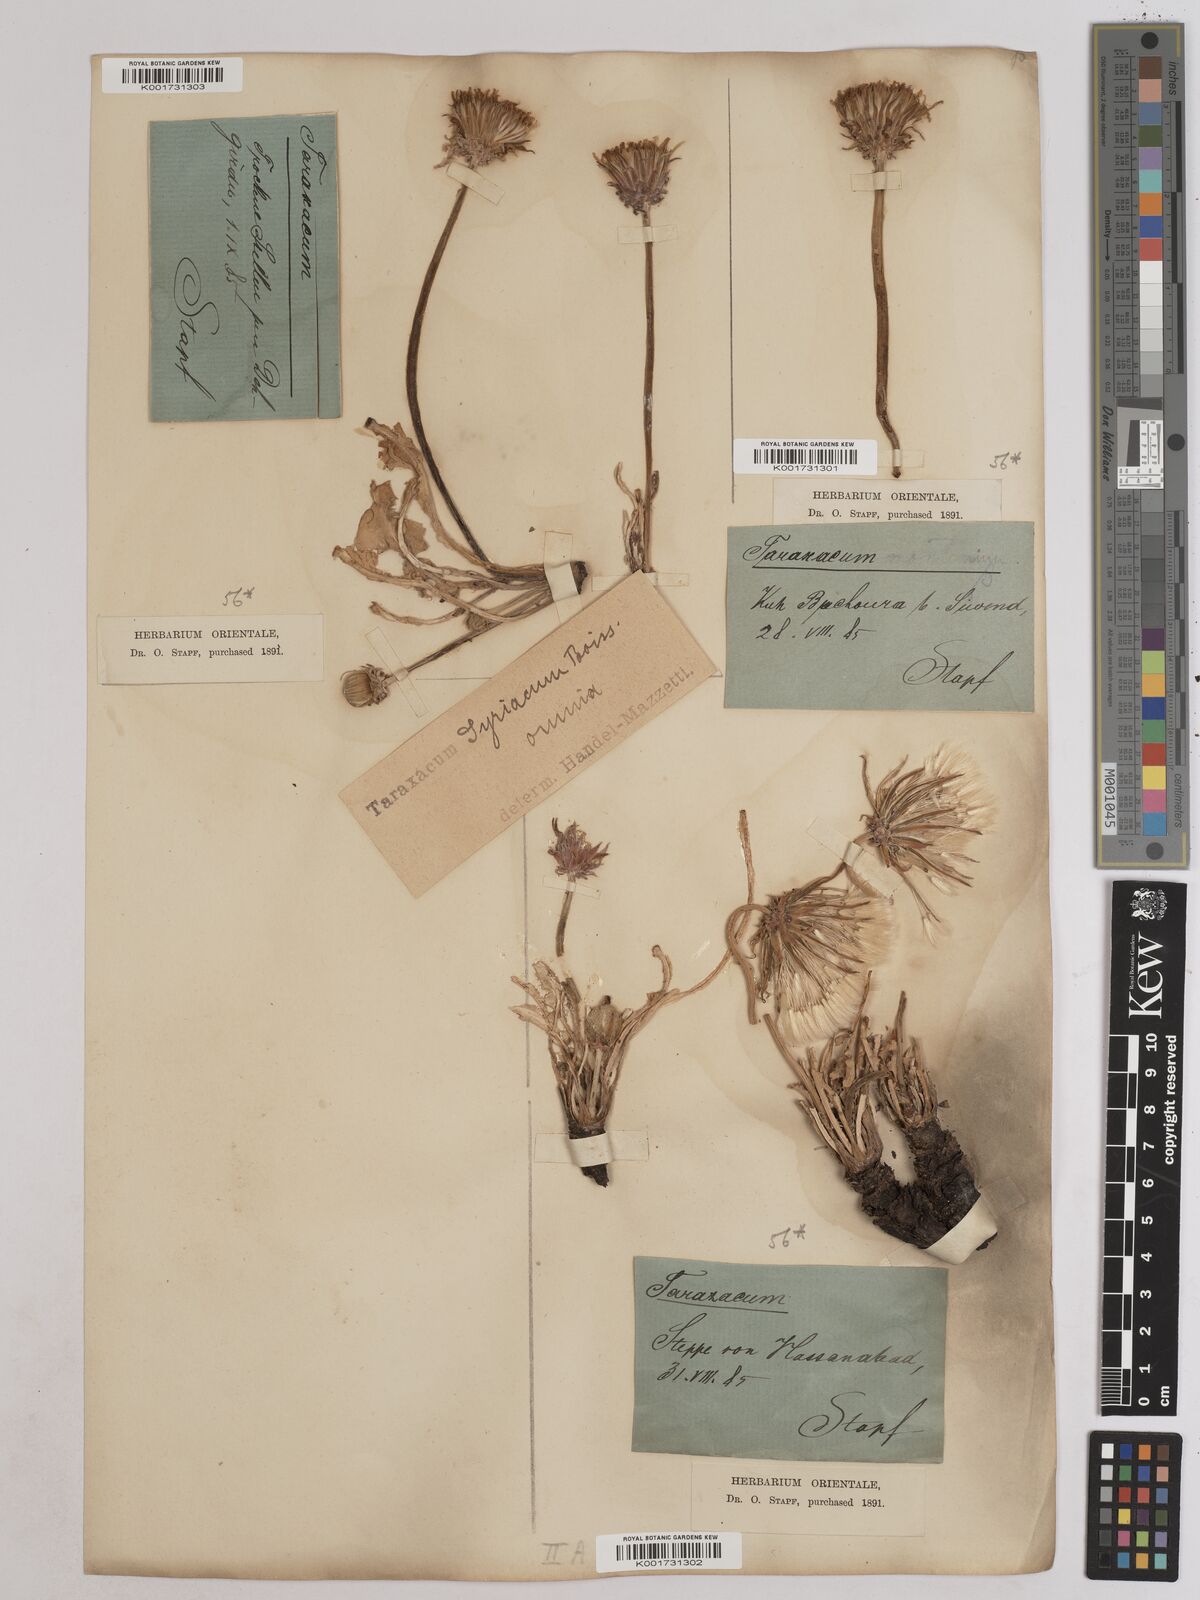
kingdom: Plantae
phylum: Tracheophyta
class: Magnoliopsida
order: Asterales
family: Asteraceae
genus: Taraxacum
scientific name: Taraxacum syriacum
